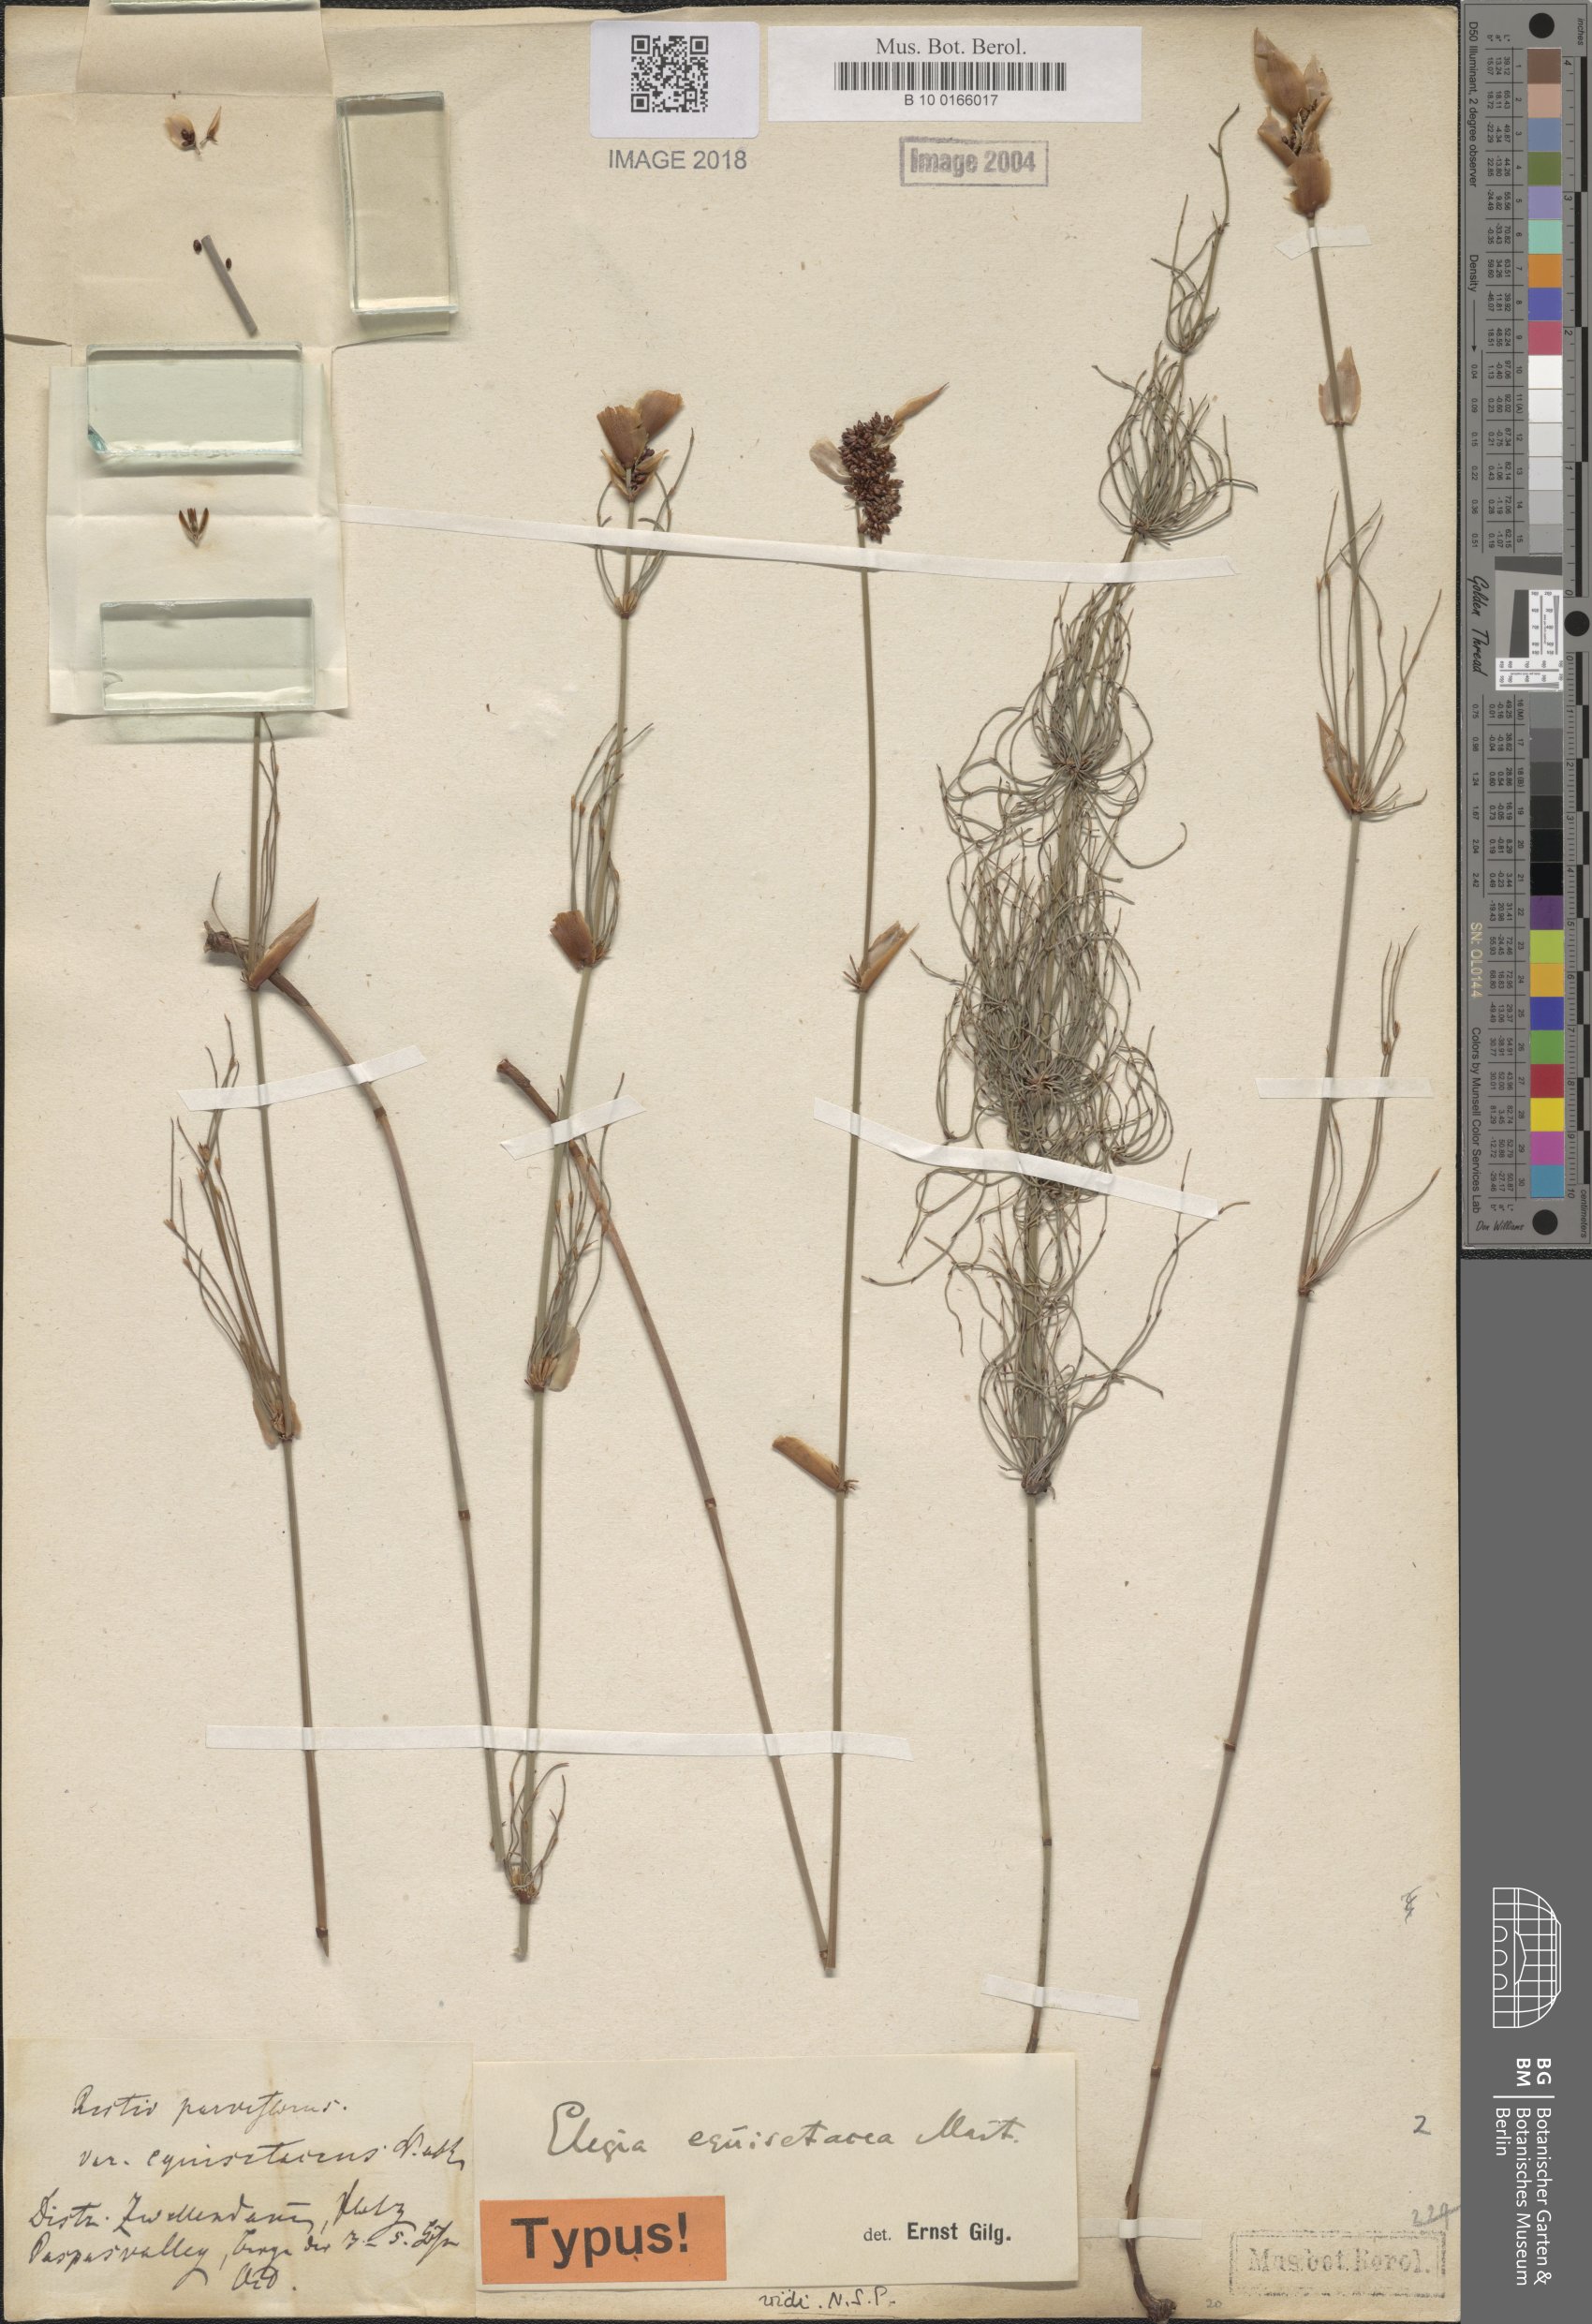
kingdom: Plantae
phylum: Tracheophyta
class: Liliopsida
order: Poales
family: Restionaceae
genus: Elegia
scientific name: Elegia equisetacea
